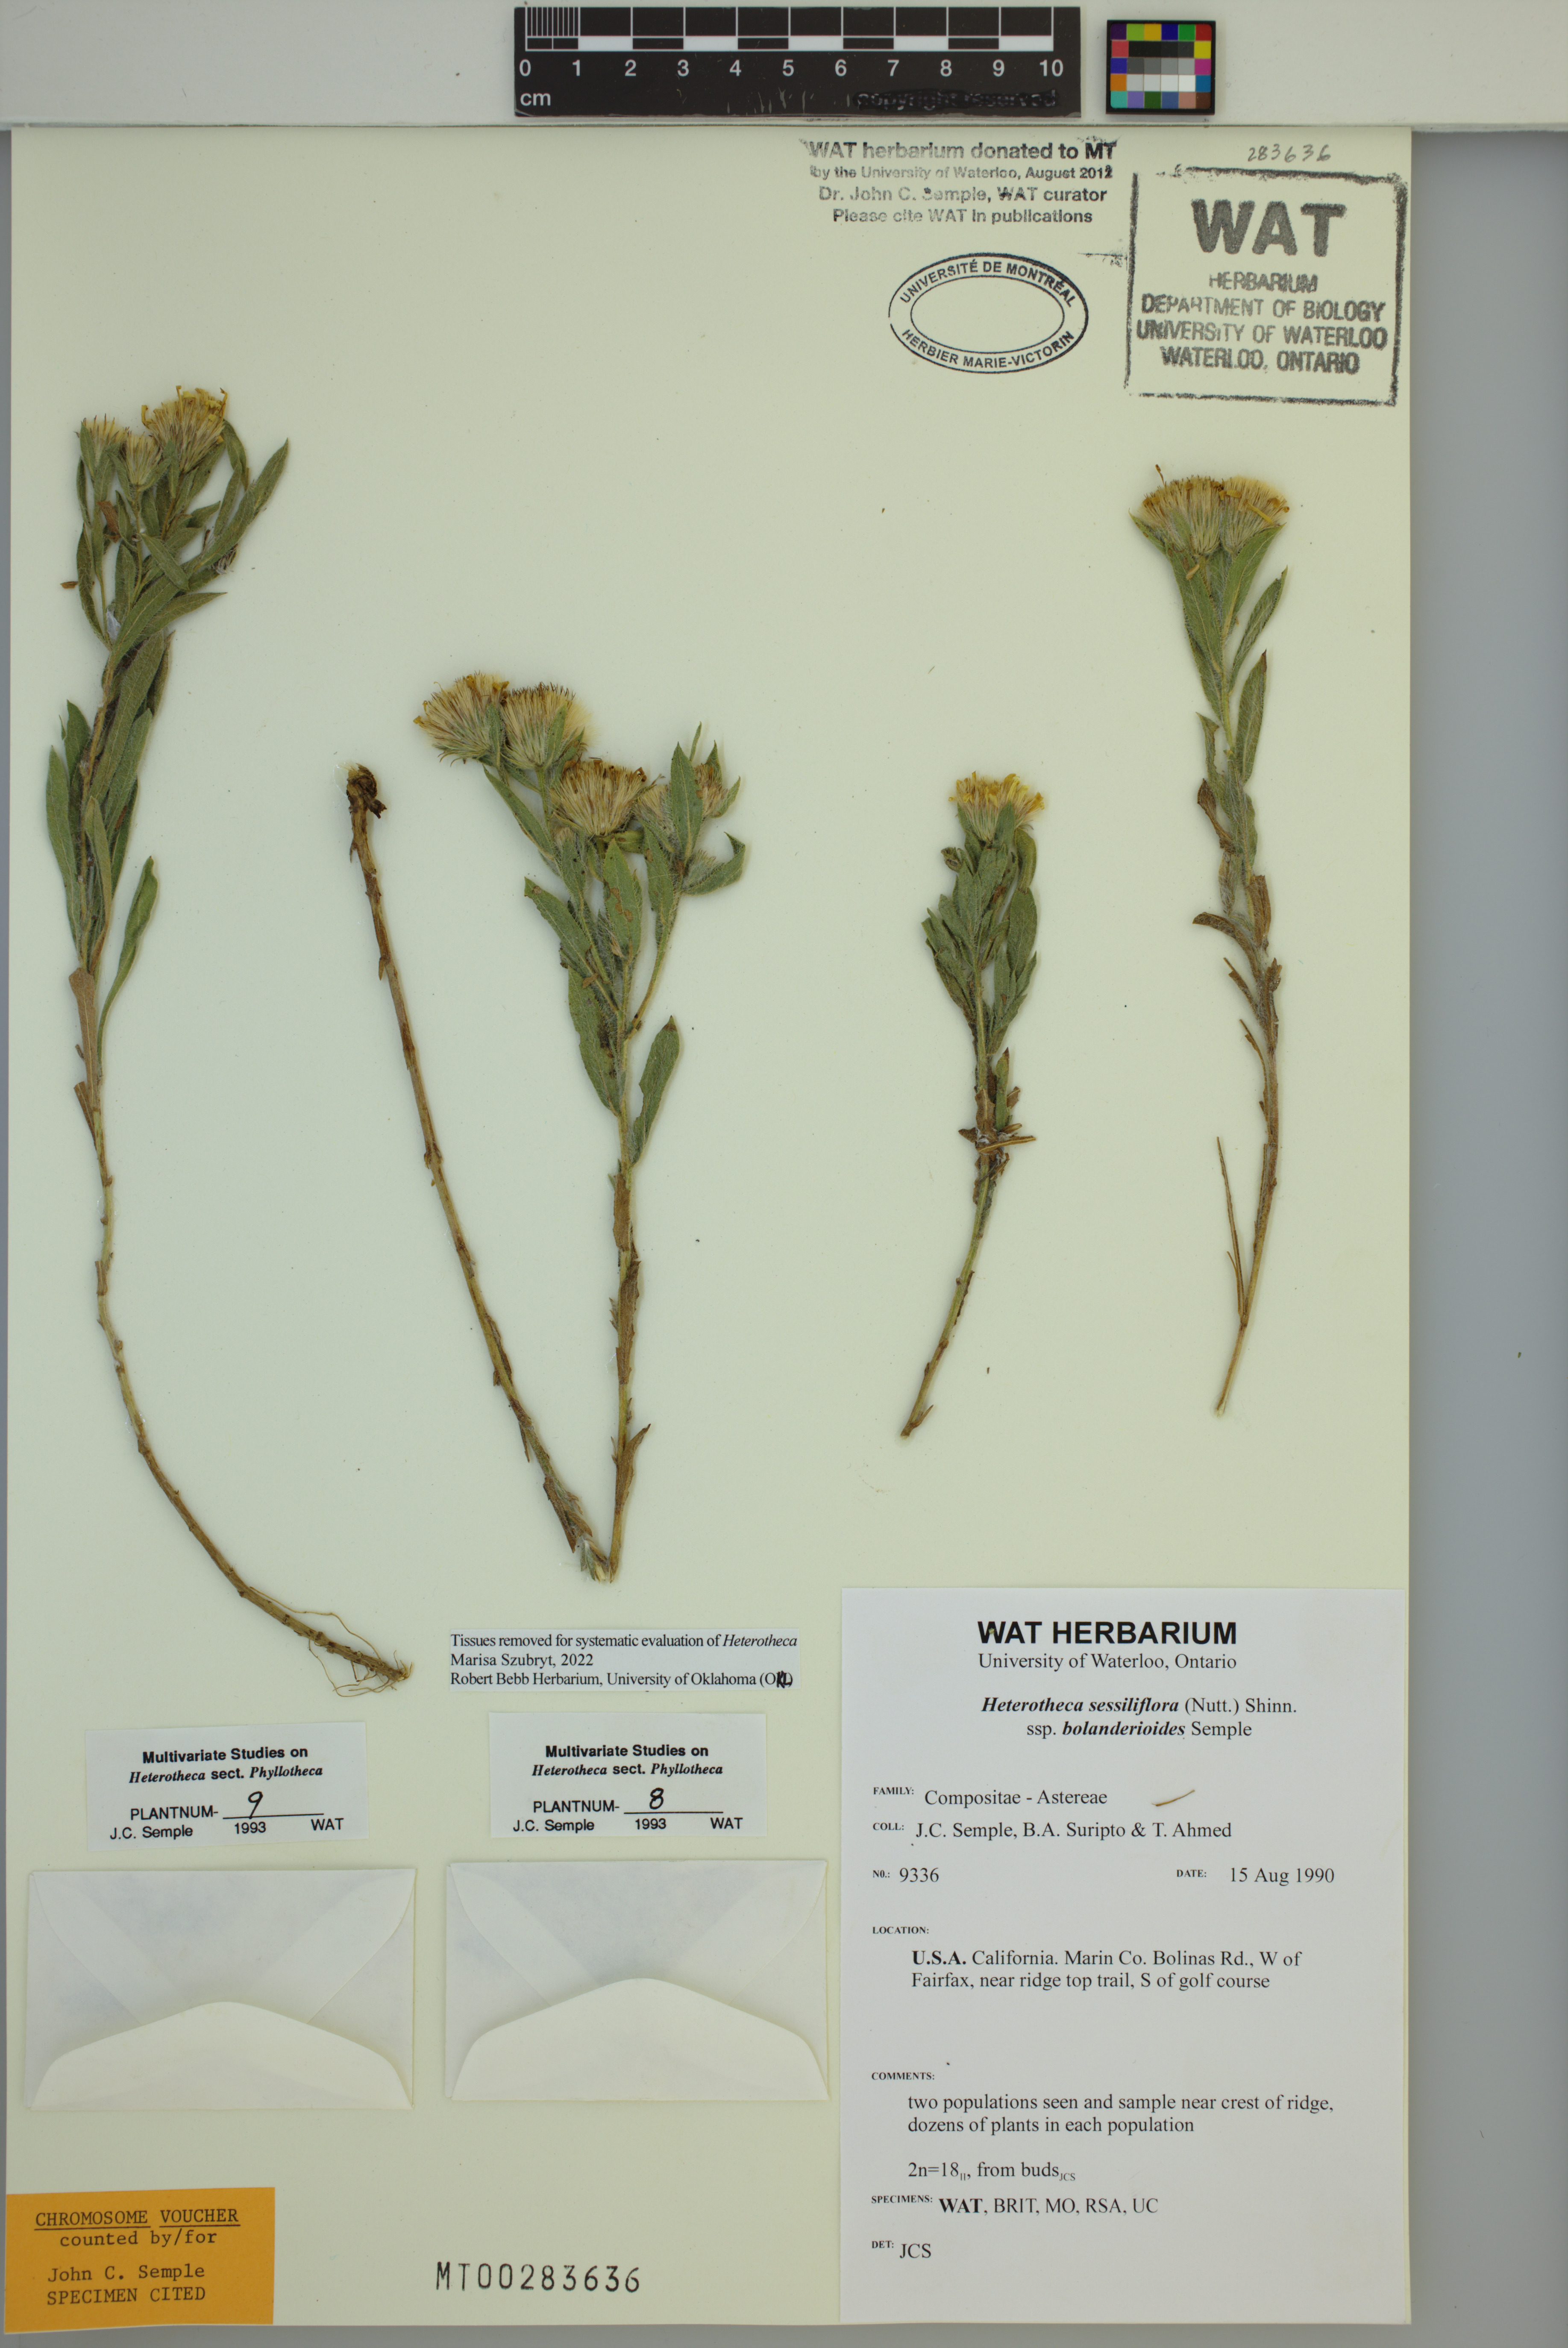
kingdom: Plantae
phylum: Tracheophyta
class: Magnoliopsida
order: Asterales
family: Asteraceae
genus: Heterotheca
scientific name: Heterotheca bolanderi
